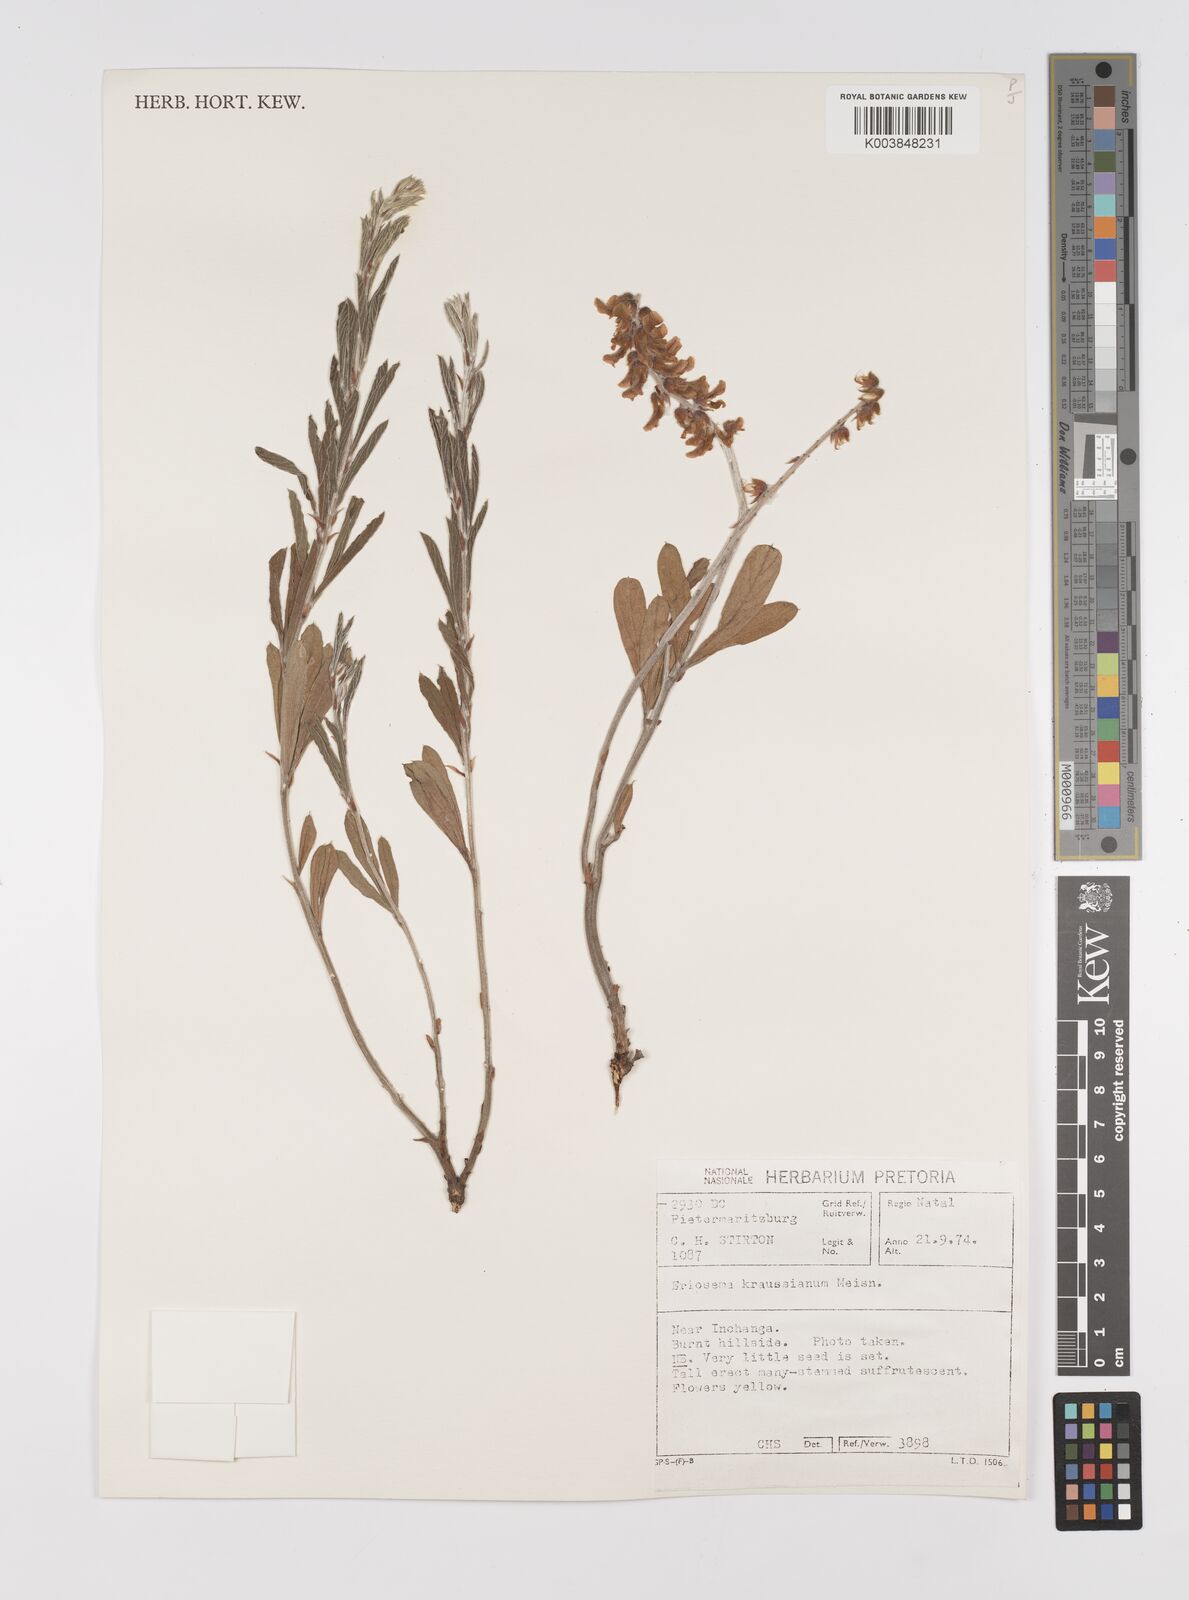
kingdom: Plantae
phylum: Tracheophyta
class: Magnoliopsida
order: Fabales
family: Fabaceae
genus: Eriosema
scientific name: Eriosema kraussianum
